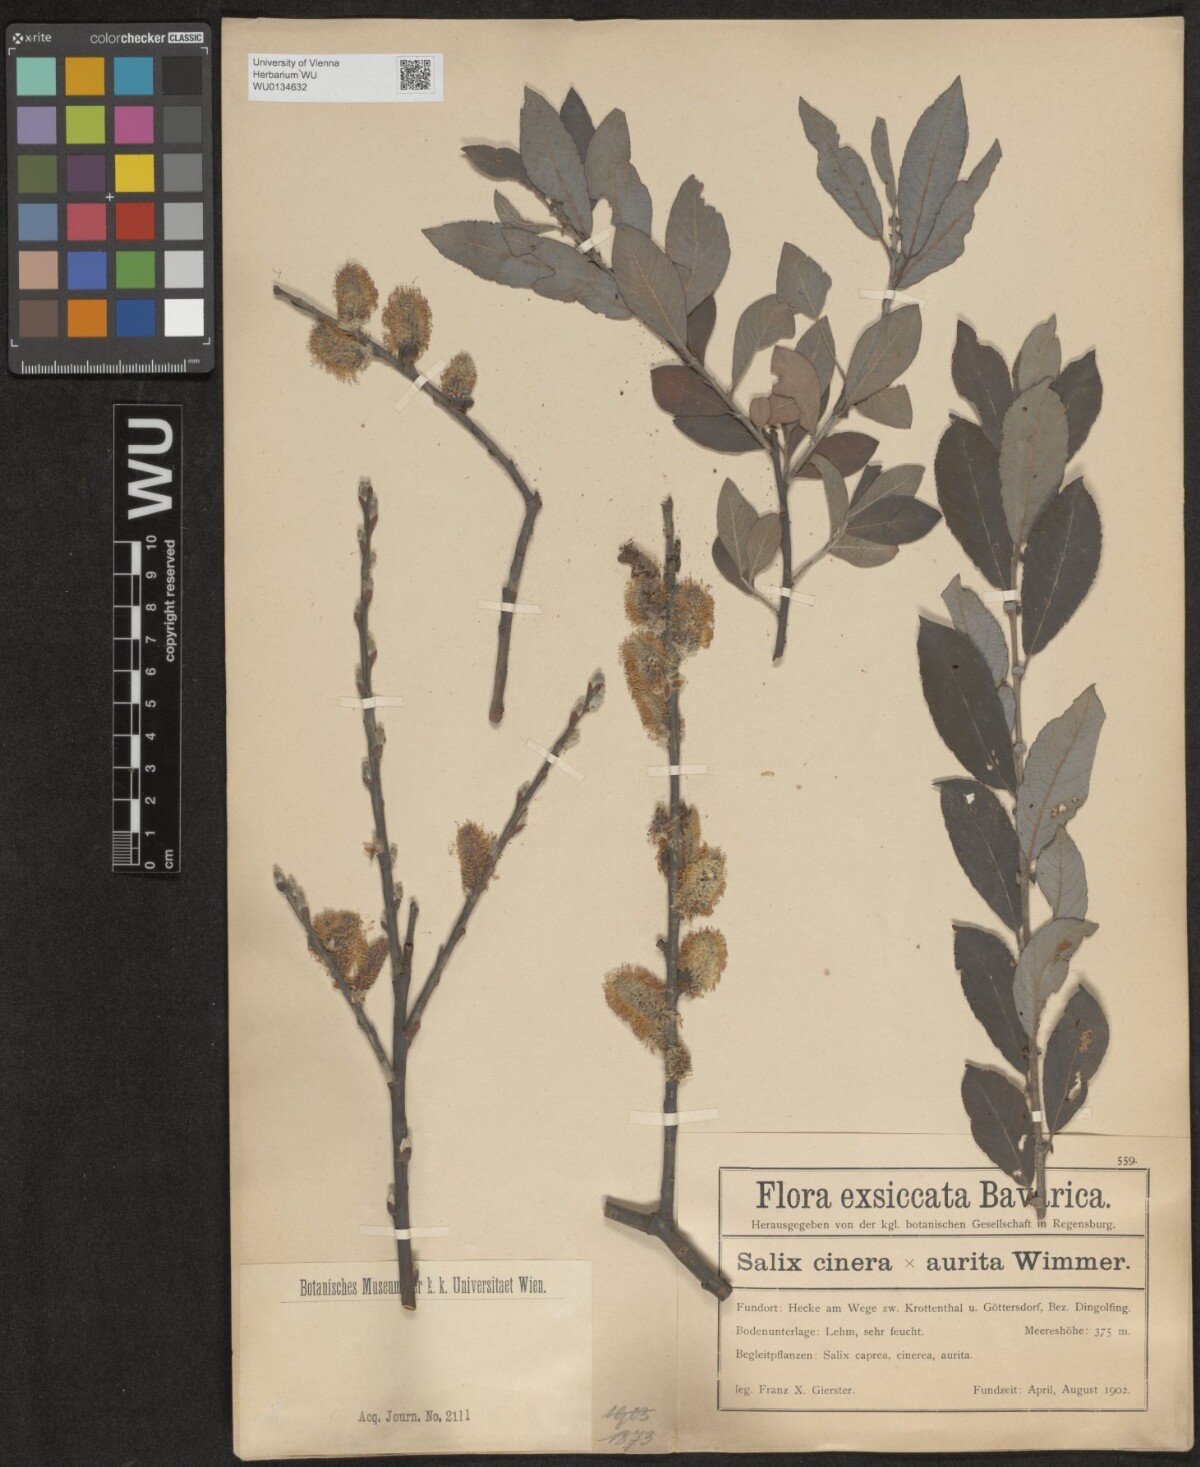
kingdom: Plantae
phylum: Tracheophyta
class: Magnoliopsida
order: Malpighiales
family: Salicaceae
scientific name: Salicaceae
